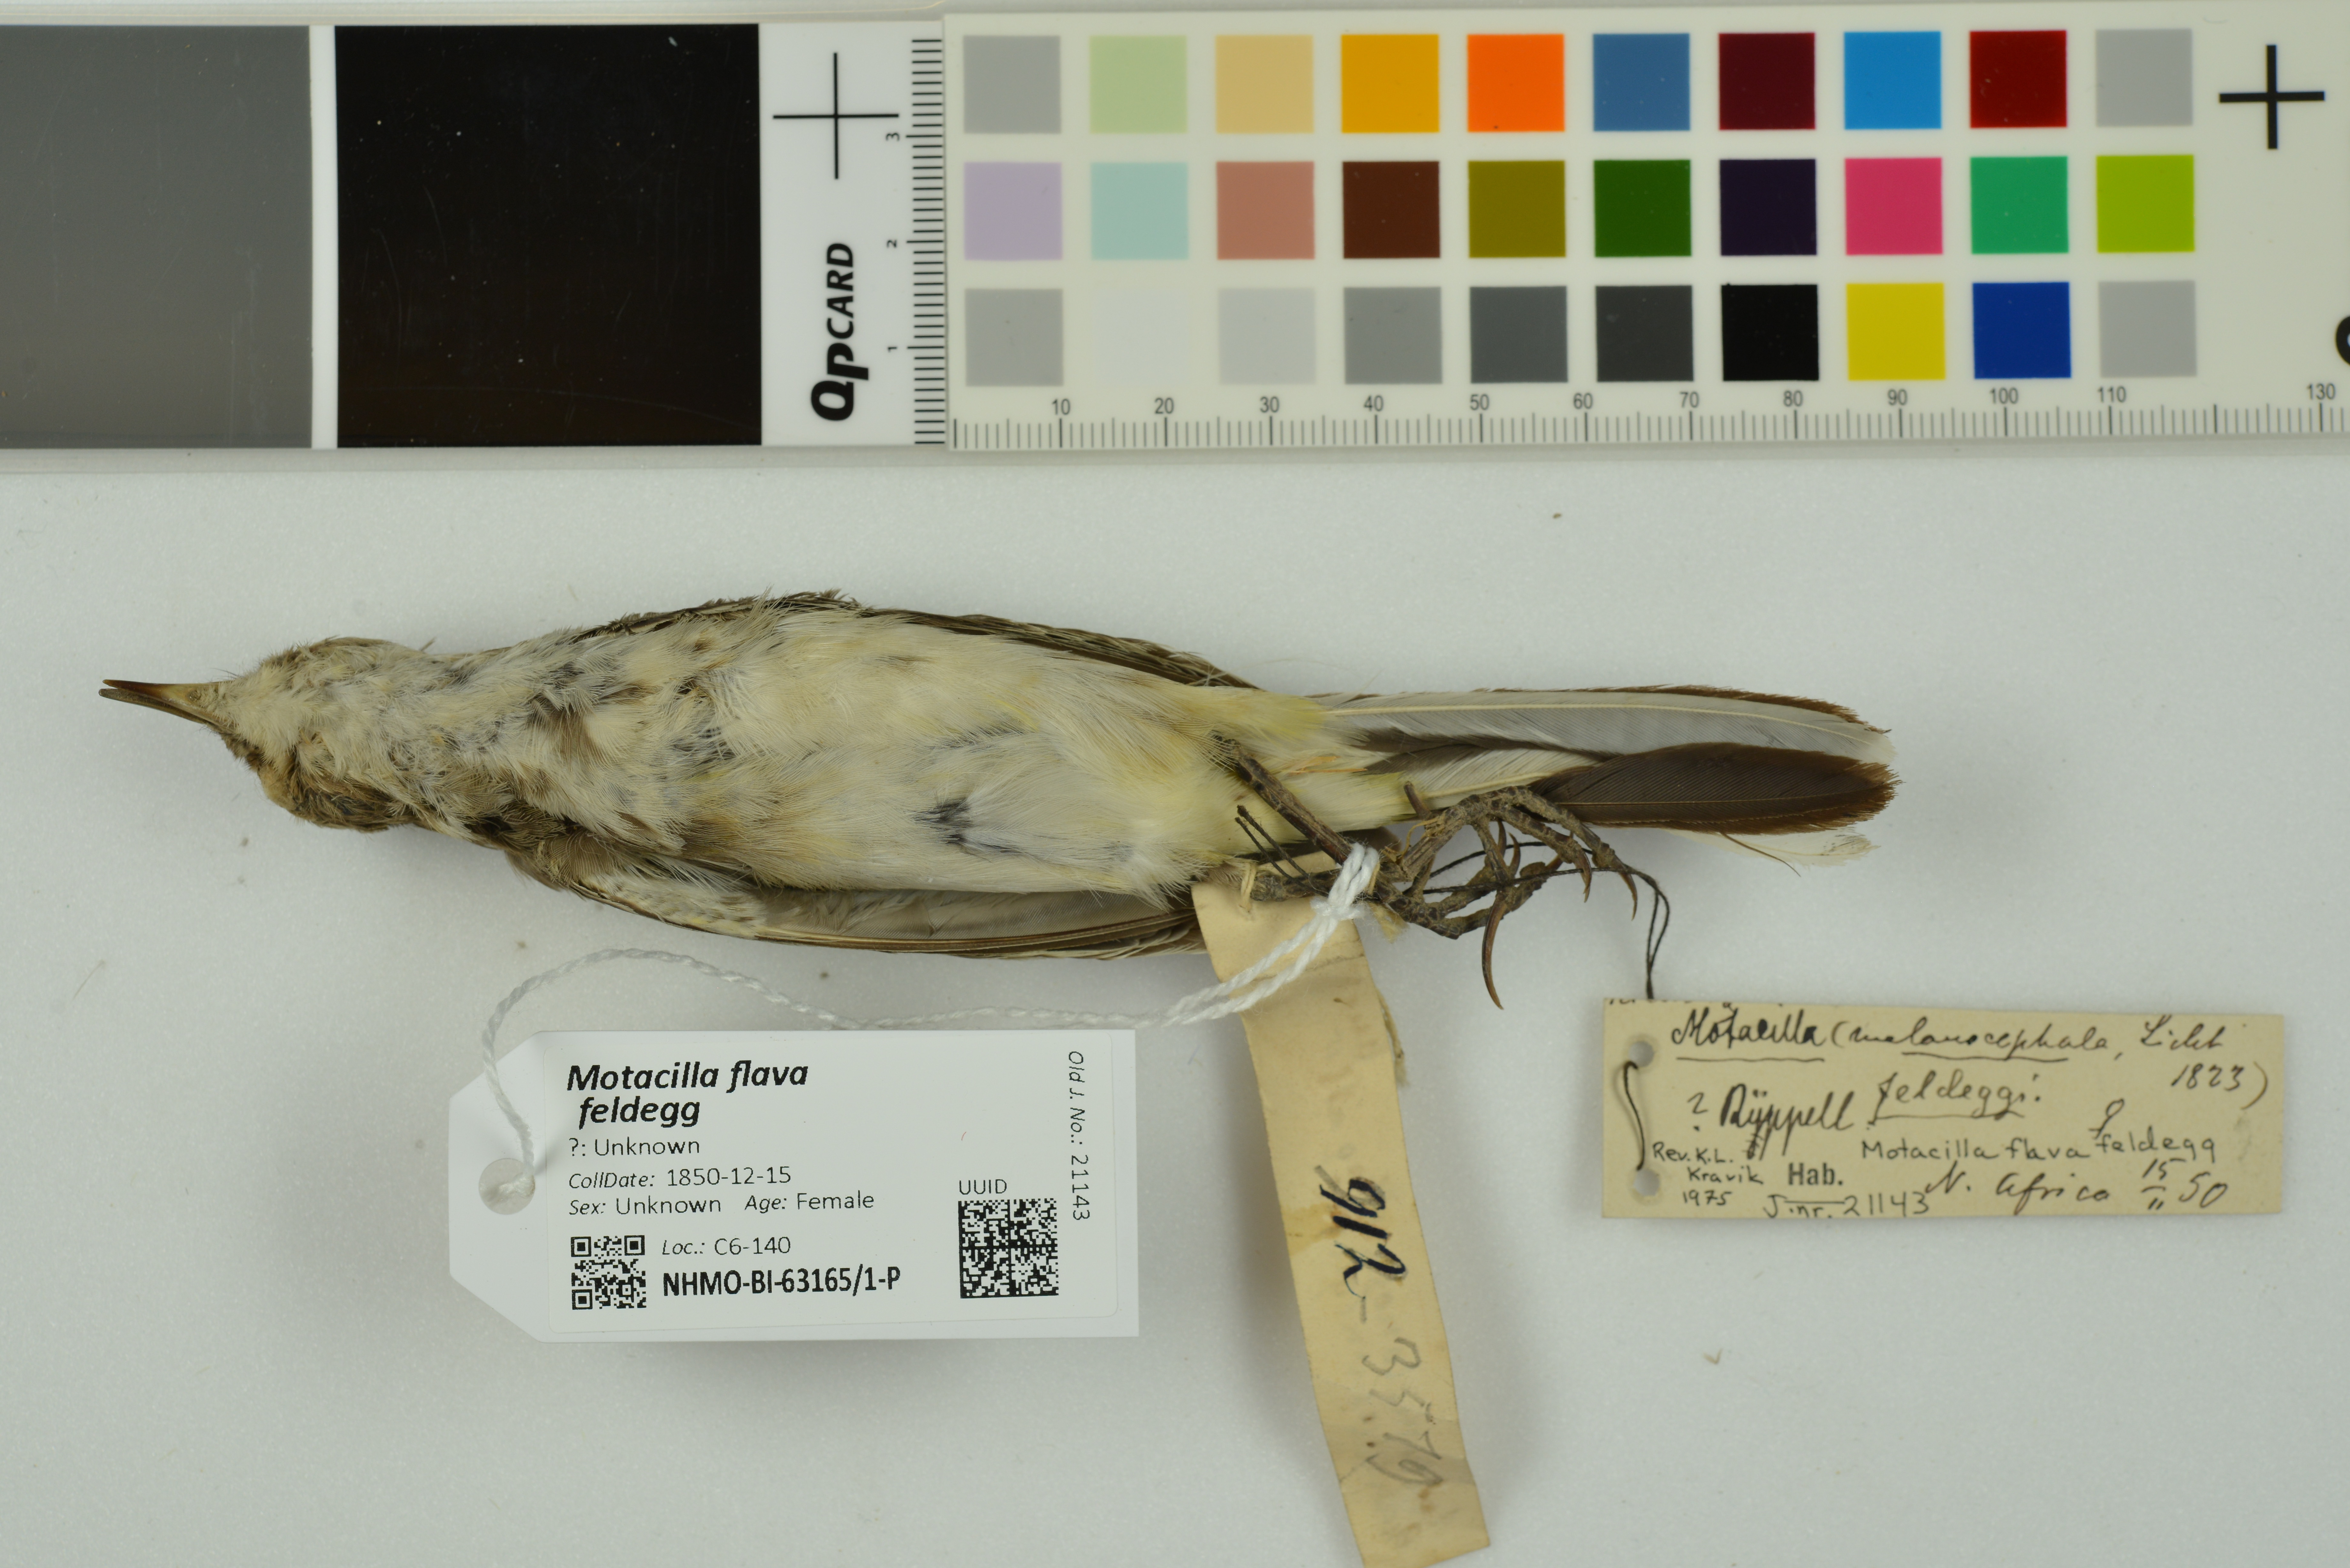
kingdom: Animalia
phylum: Chordata
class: Aves
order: Passeriformes
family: Motacillidae
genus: Motacilla
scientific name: Motacilla flava
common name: Western yellow wagtail
